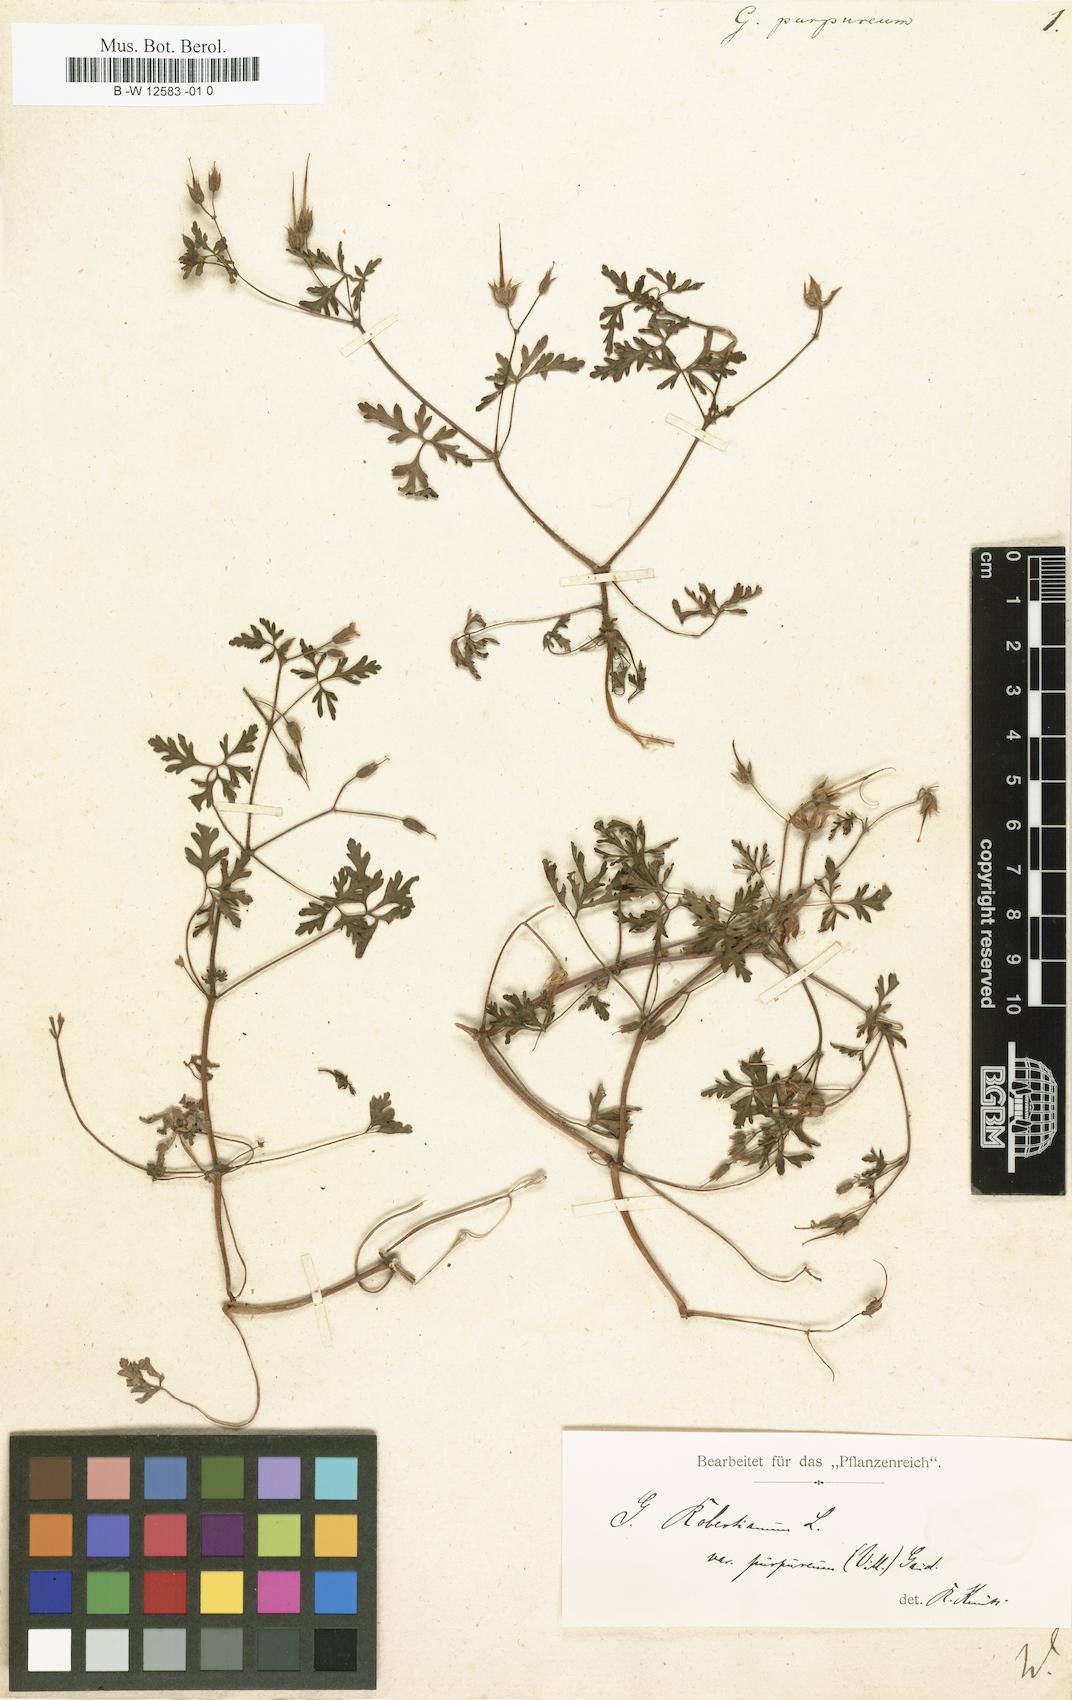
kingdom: Plantae
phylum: Tracheophyta
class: Magnoliopsida
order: Geraniales
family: Geraniaceae
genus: Geranium
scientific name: Geranium purpureum
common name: Little-robin
